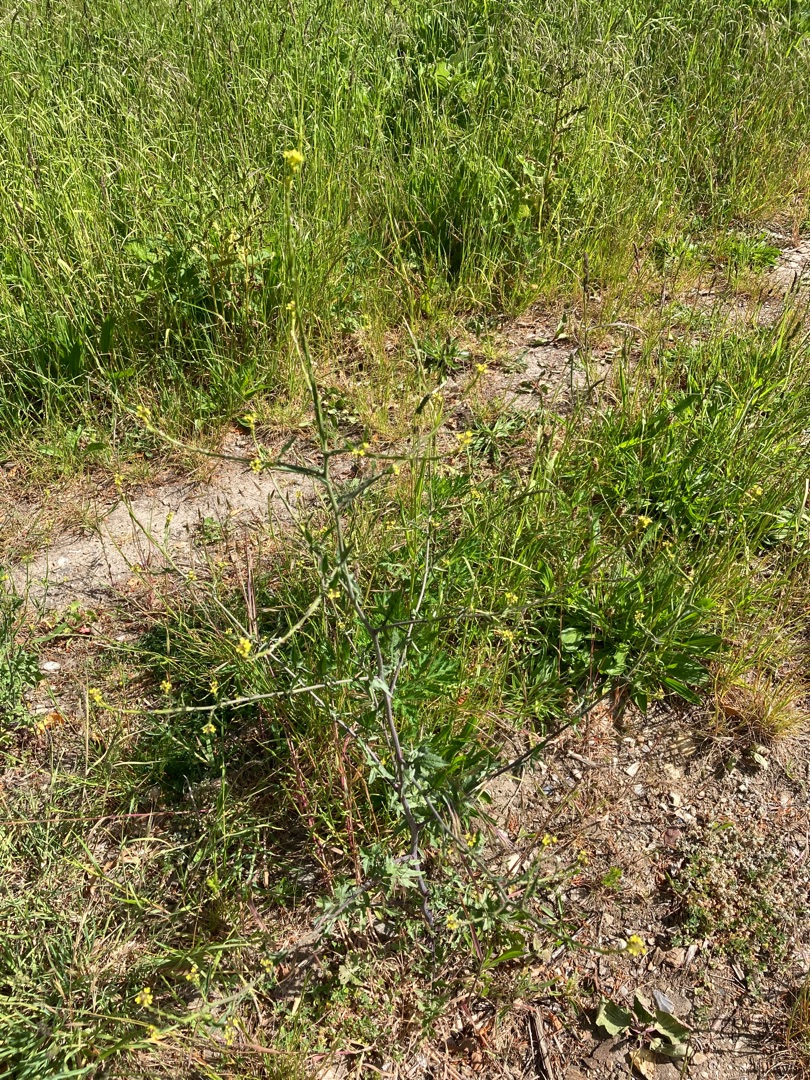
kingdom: Plantae
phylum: Tracheophyta
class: Magnoliopsida
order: Brassicales
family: Brassicaceae
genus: Sisymbrium
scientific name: Sisymbrium officinale
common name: Rank vejsennep
